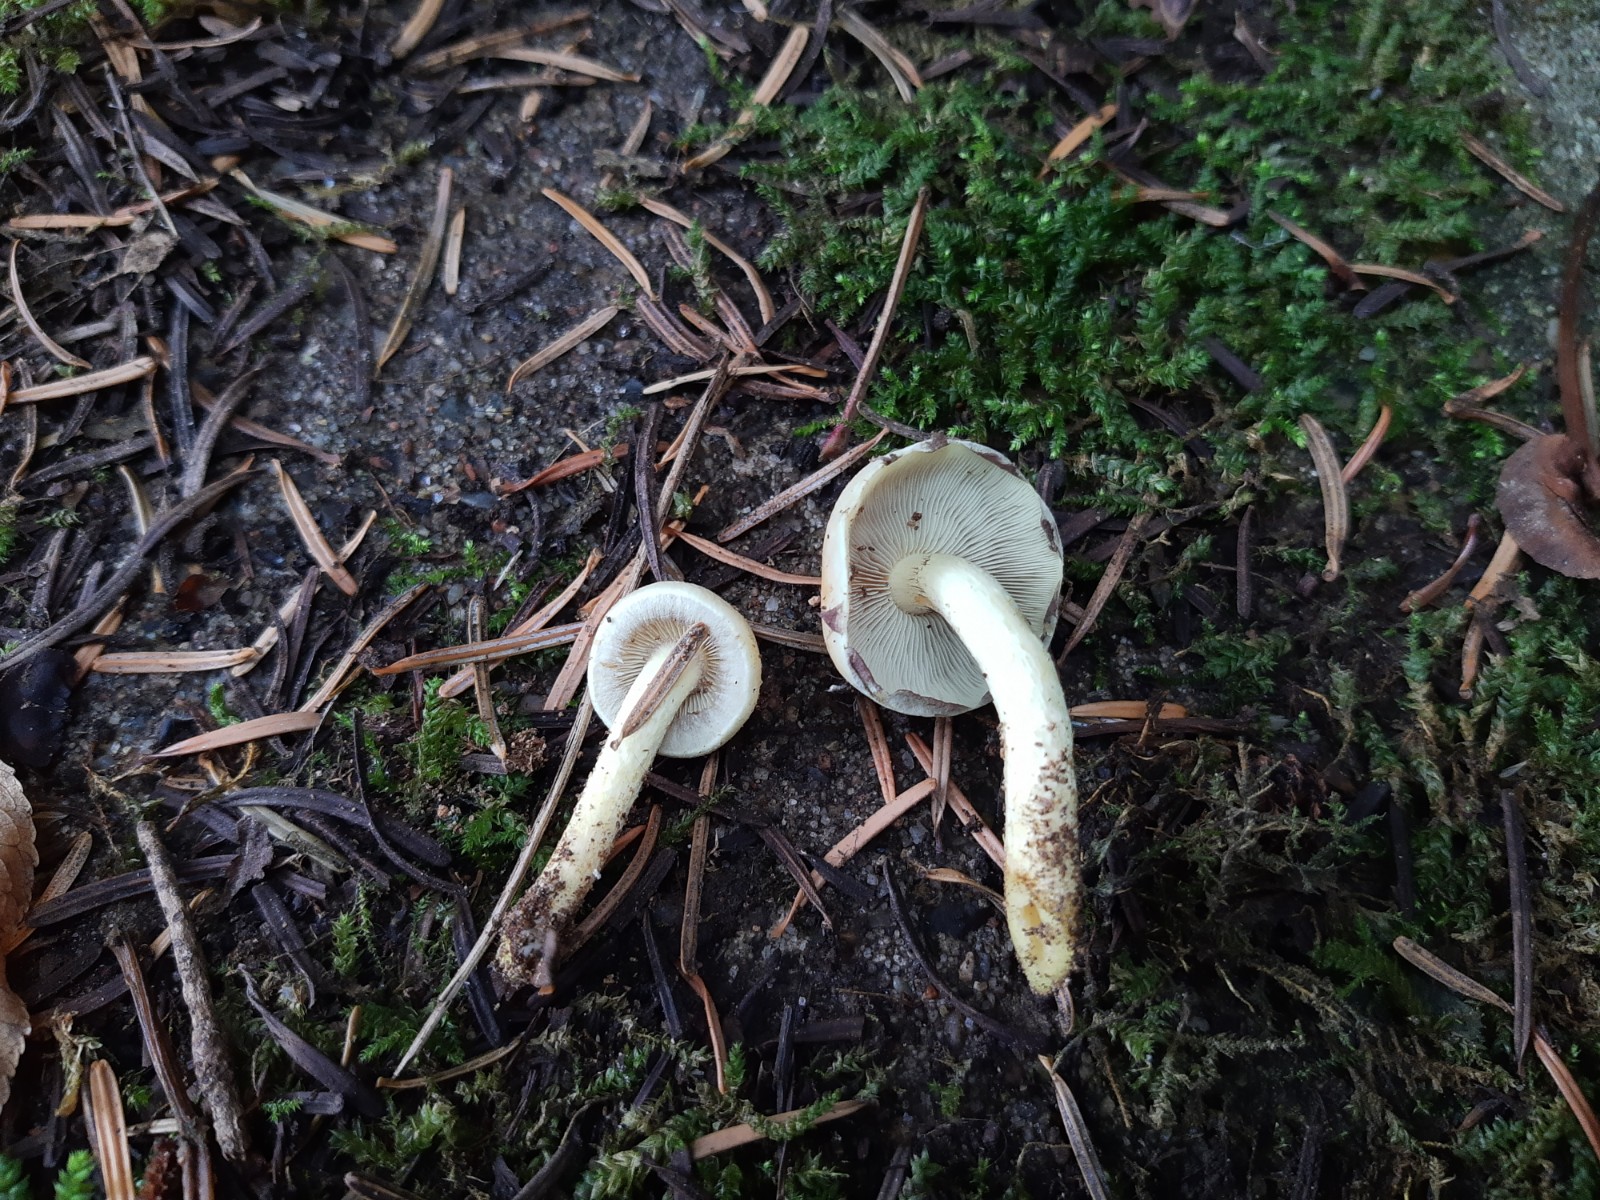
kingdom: Fungi
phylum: Basidiomycota
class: Agaricomycetes
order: Agaricales
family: Strophariaceae
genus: Hypholoma
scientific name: Hypholoma fasciculare
